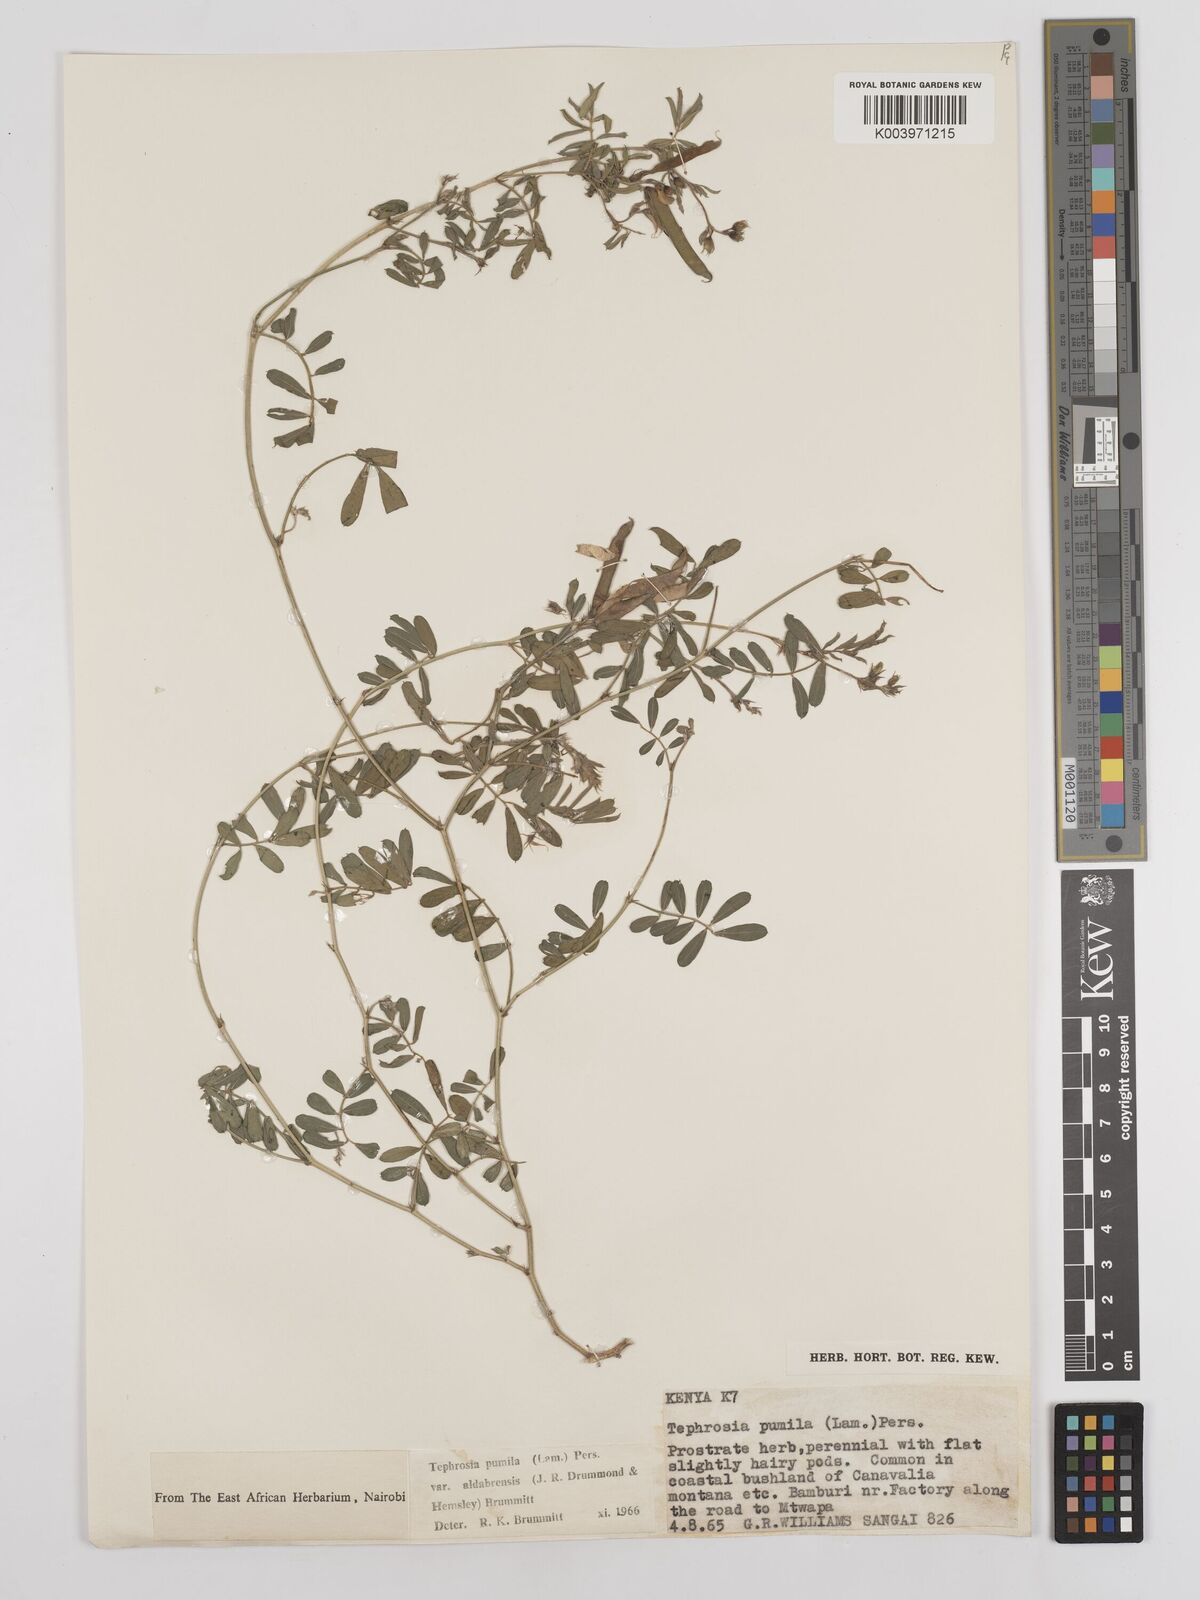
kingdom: Plantae
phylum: Tracheophyta
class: Magnoliopsida
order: Fabales
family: Fabaceae
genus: Tephrosia
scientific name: Tephrosia pumila
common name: Indigo sauvage
